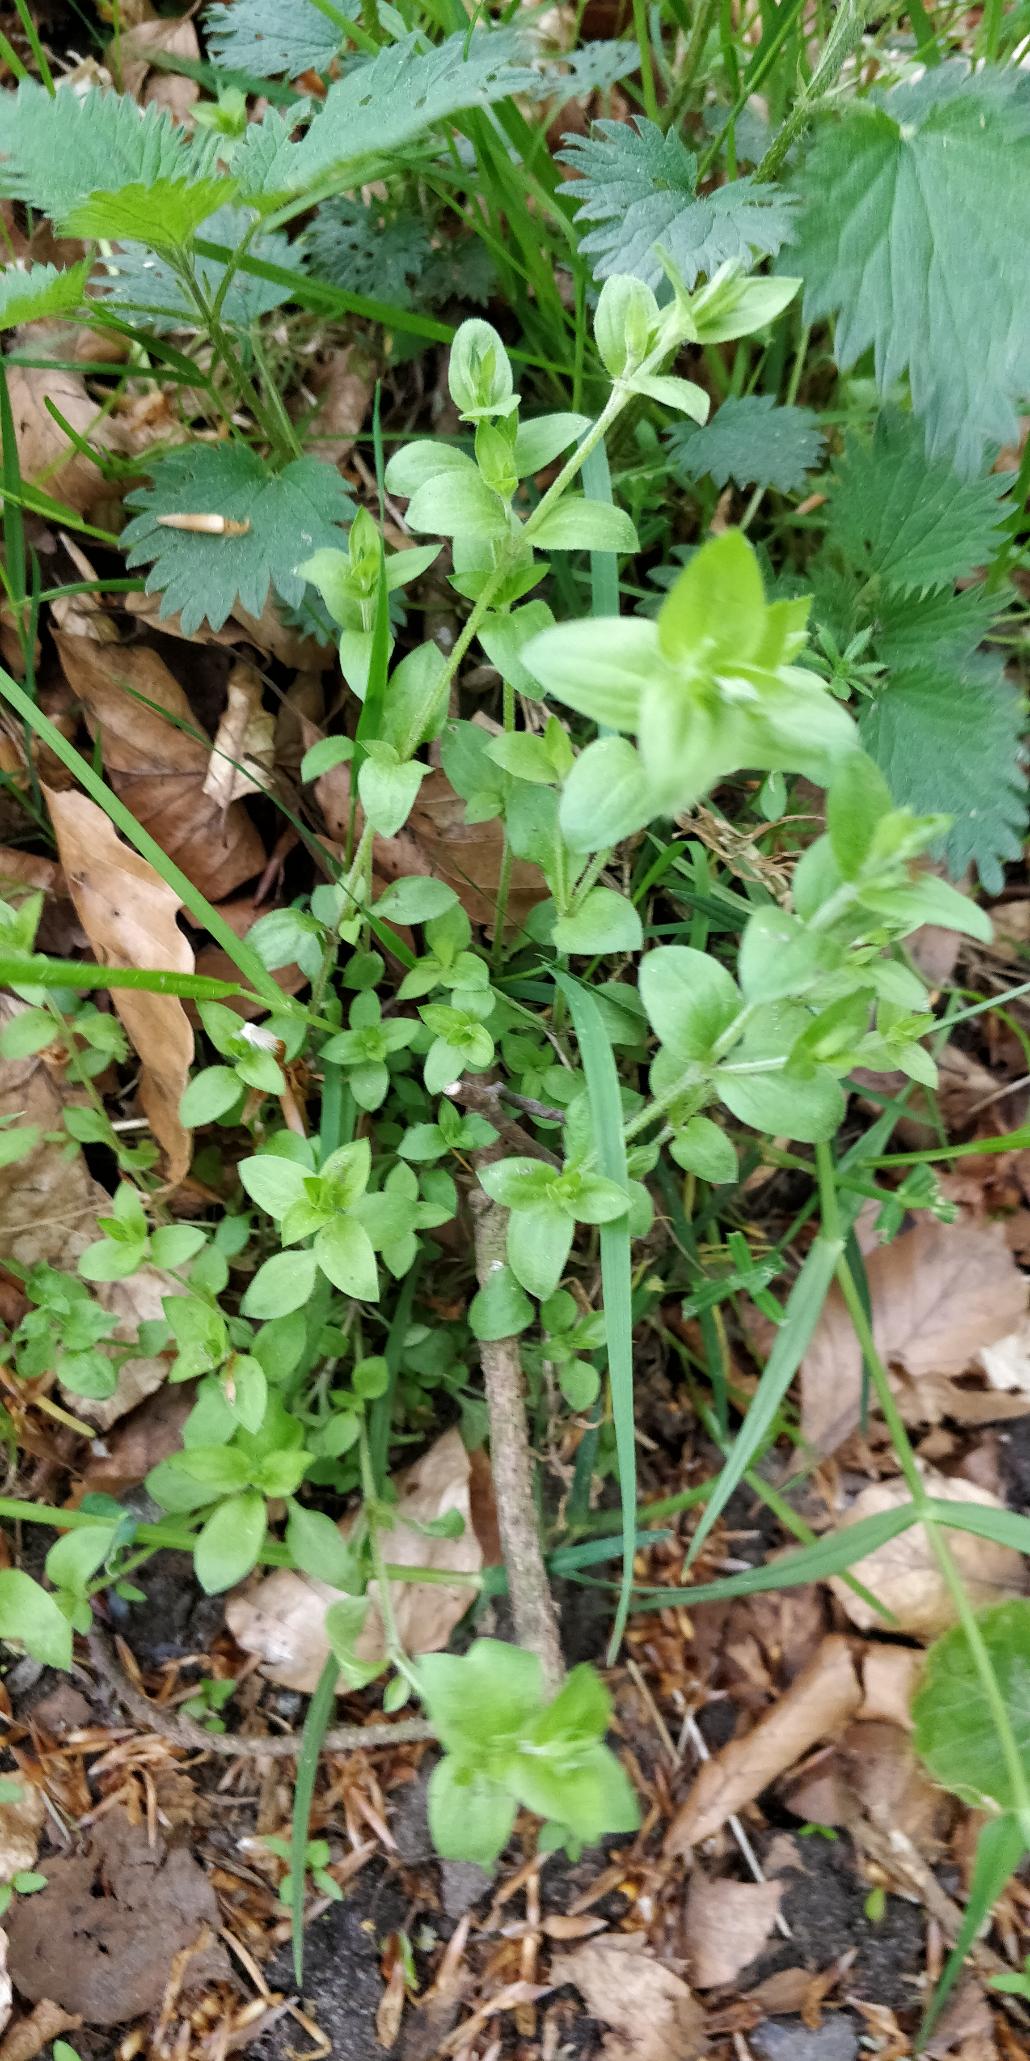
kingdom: Plantae
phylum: Tracheophyta
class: Magnoliopsida
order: Caryophyllales
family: Caryophyllaceae
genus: Moehringia
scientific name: Moehringia trinervia
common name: Skovarve
